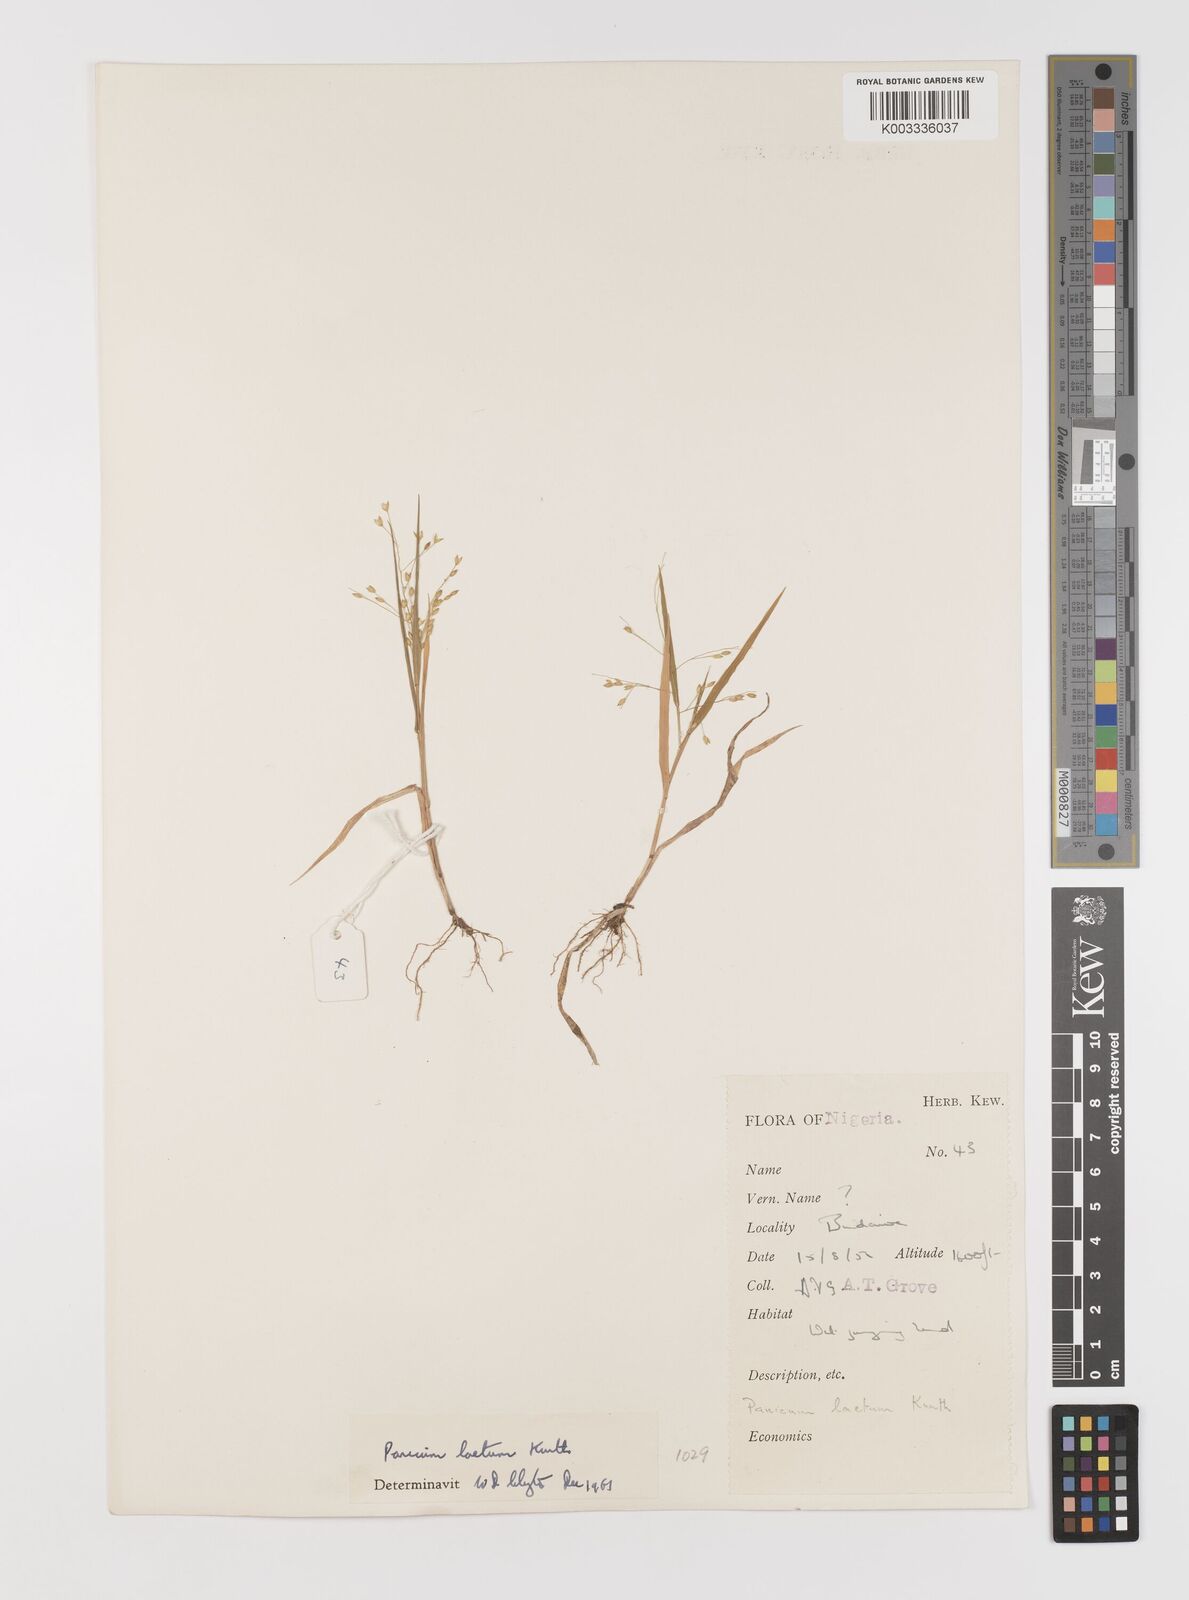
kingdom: Plantae
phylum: Tracheophyta
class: Liliopsida
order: Poales
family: Poaceae
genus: Panicum
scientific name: Panicum laetum
